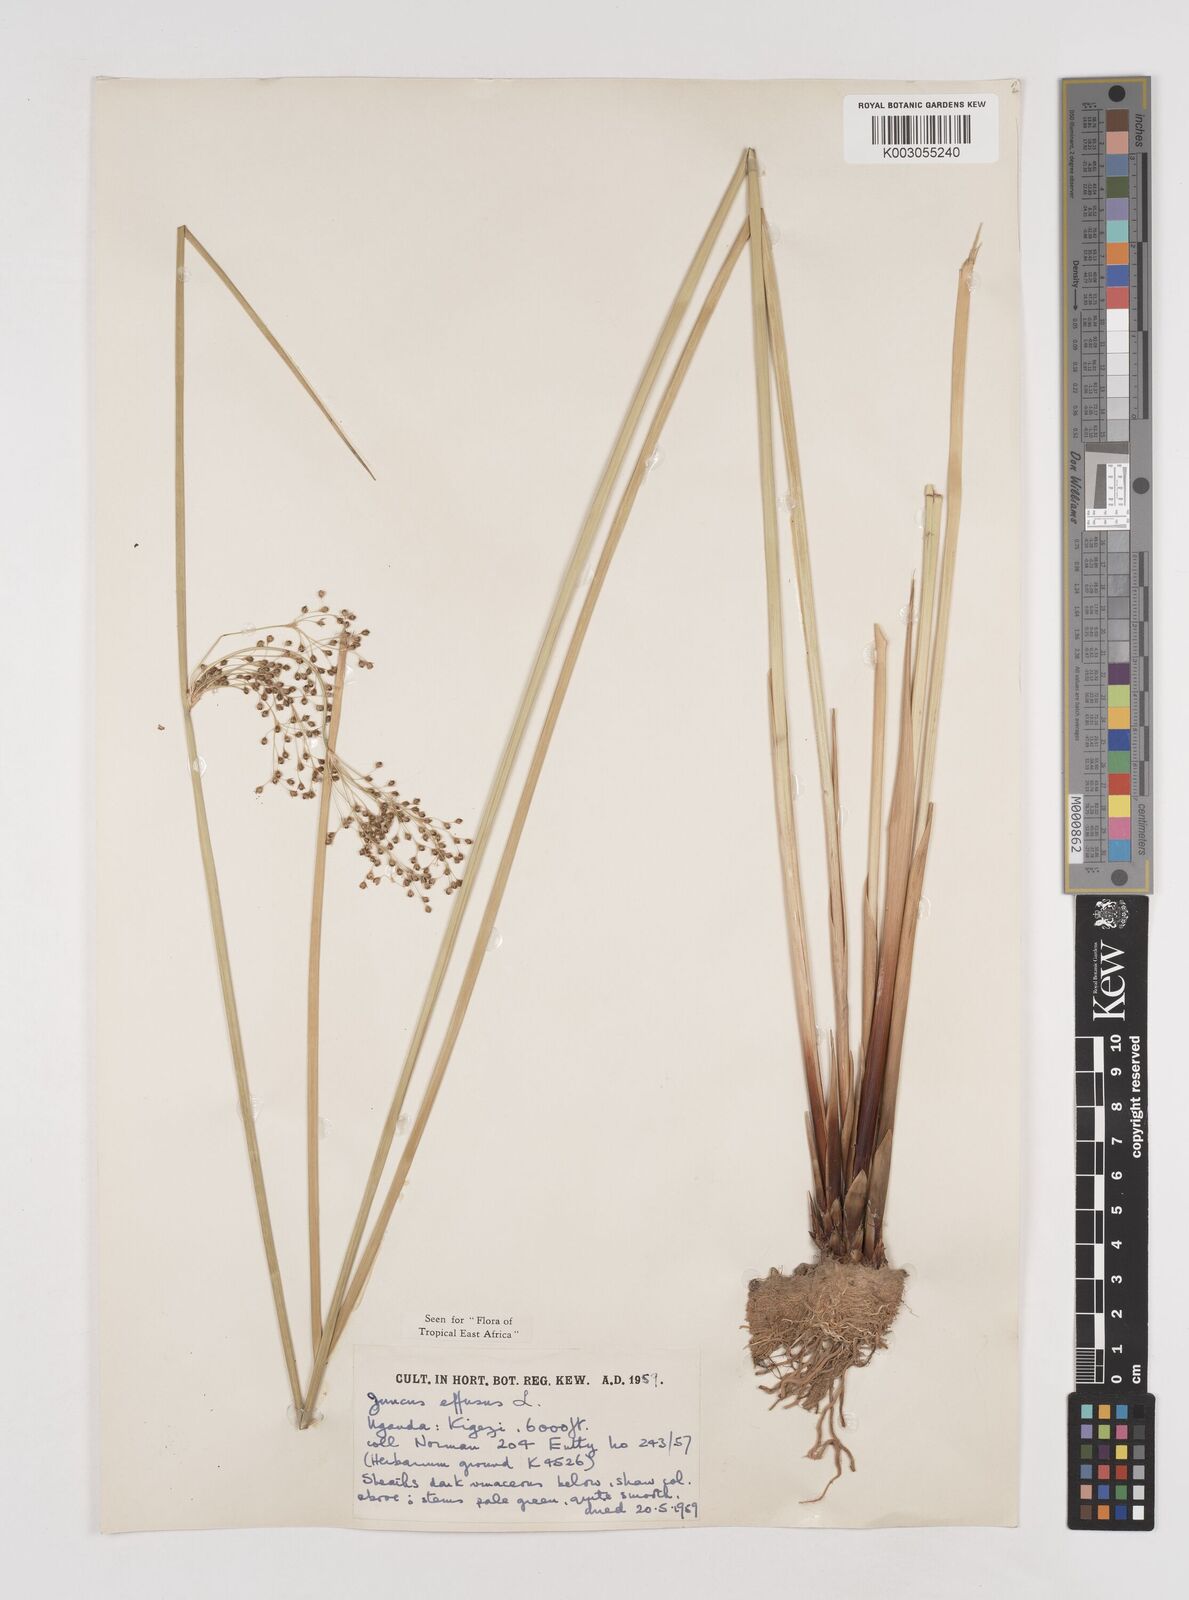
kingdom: Plantae
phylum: Tracheophyta
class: Liliopsida
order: Poales
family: Juncaceae
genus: Juncus
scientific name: Juncus effusus
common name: Soft rush
